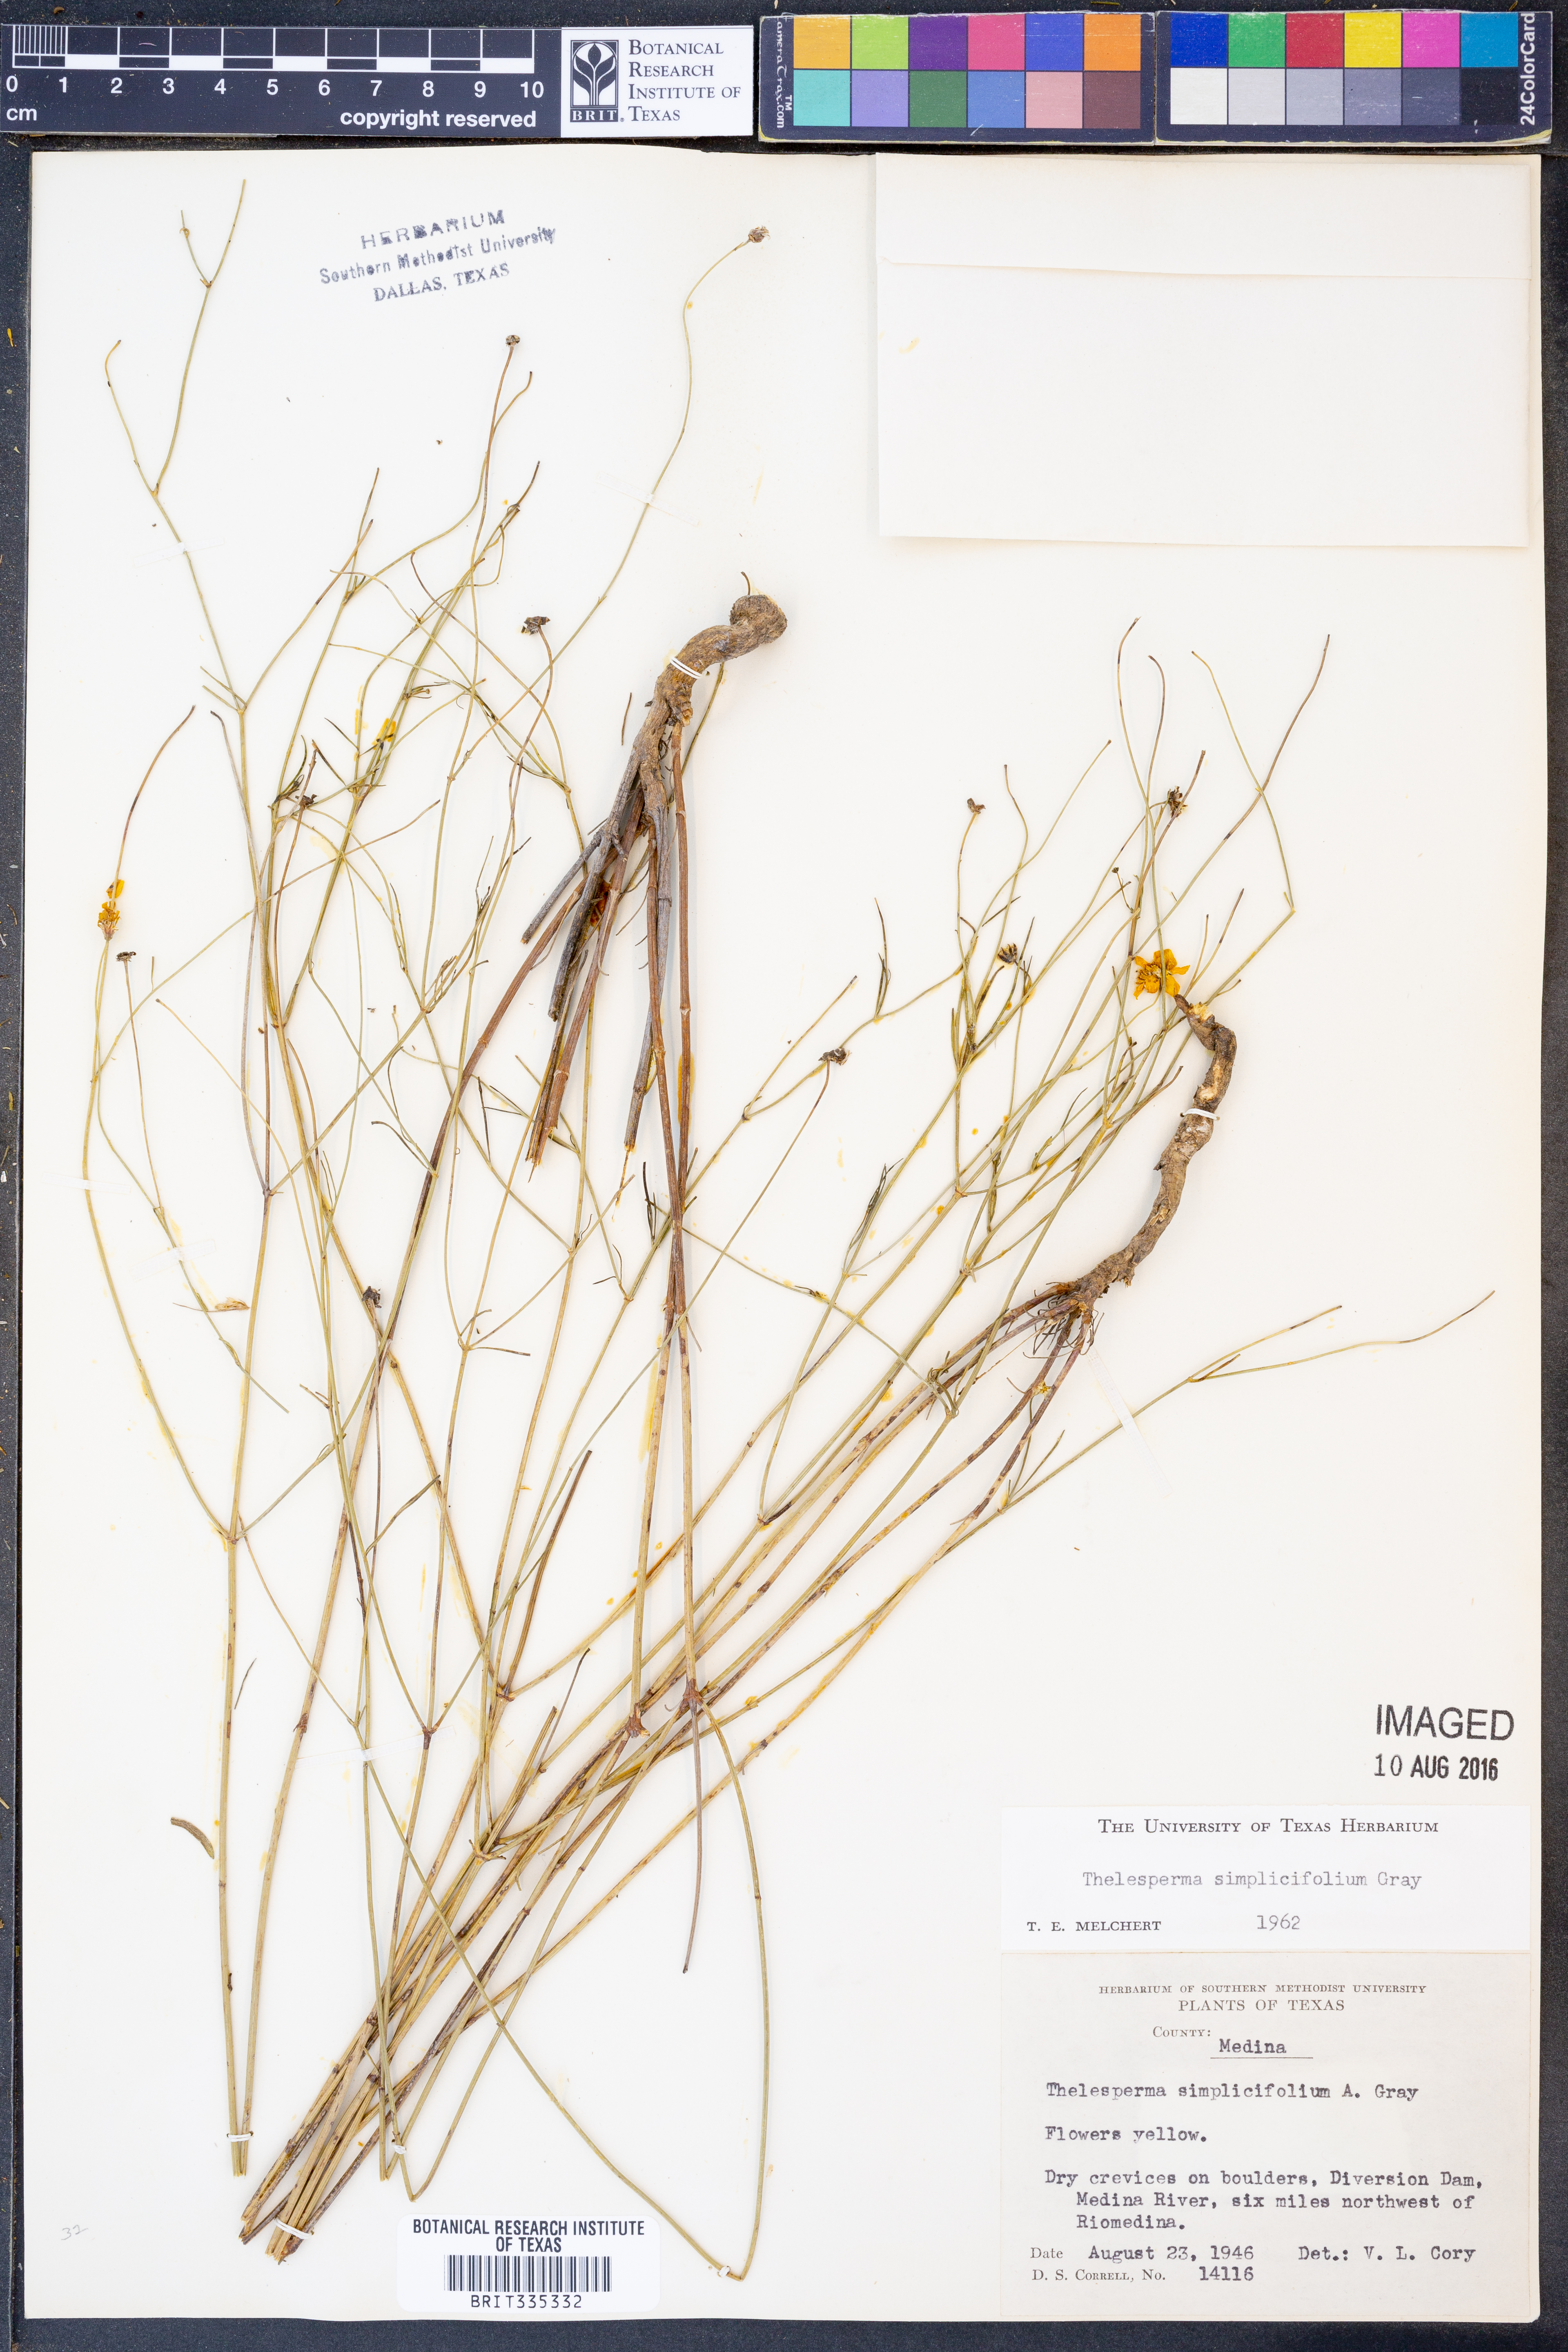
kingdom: Plantae
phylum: Tracheophyta
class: Magnoliopsida
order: Asterales
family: Asteraceae
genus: Thelesperma
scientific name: Thelesperma simplicifolium
